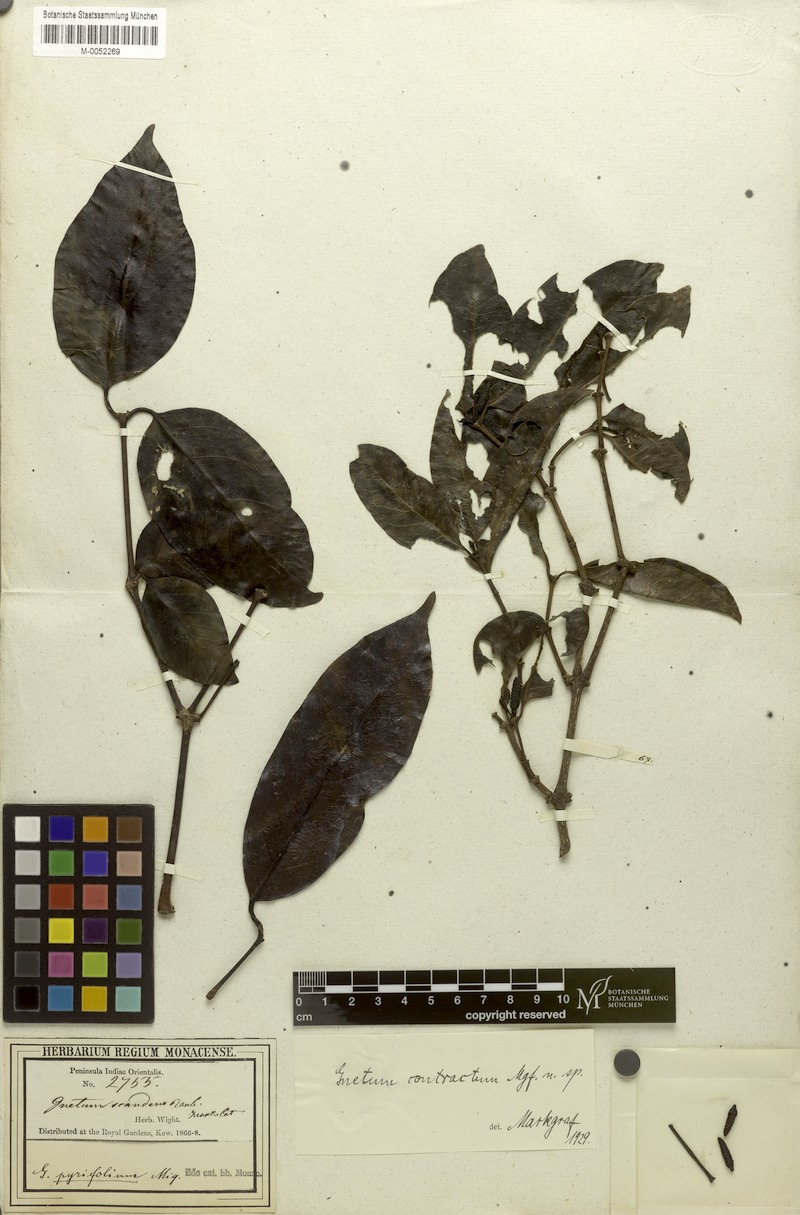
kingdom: Plantae
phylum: Tracheophyta
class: Gnetopsida
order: Gnetales
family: Gnetaceae
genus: Gnetum
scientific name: Gnetum contractum
